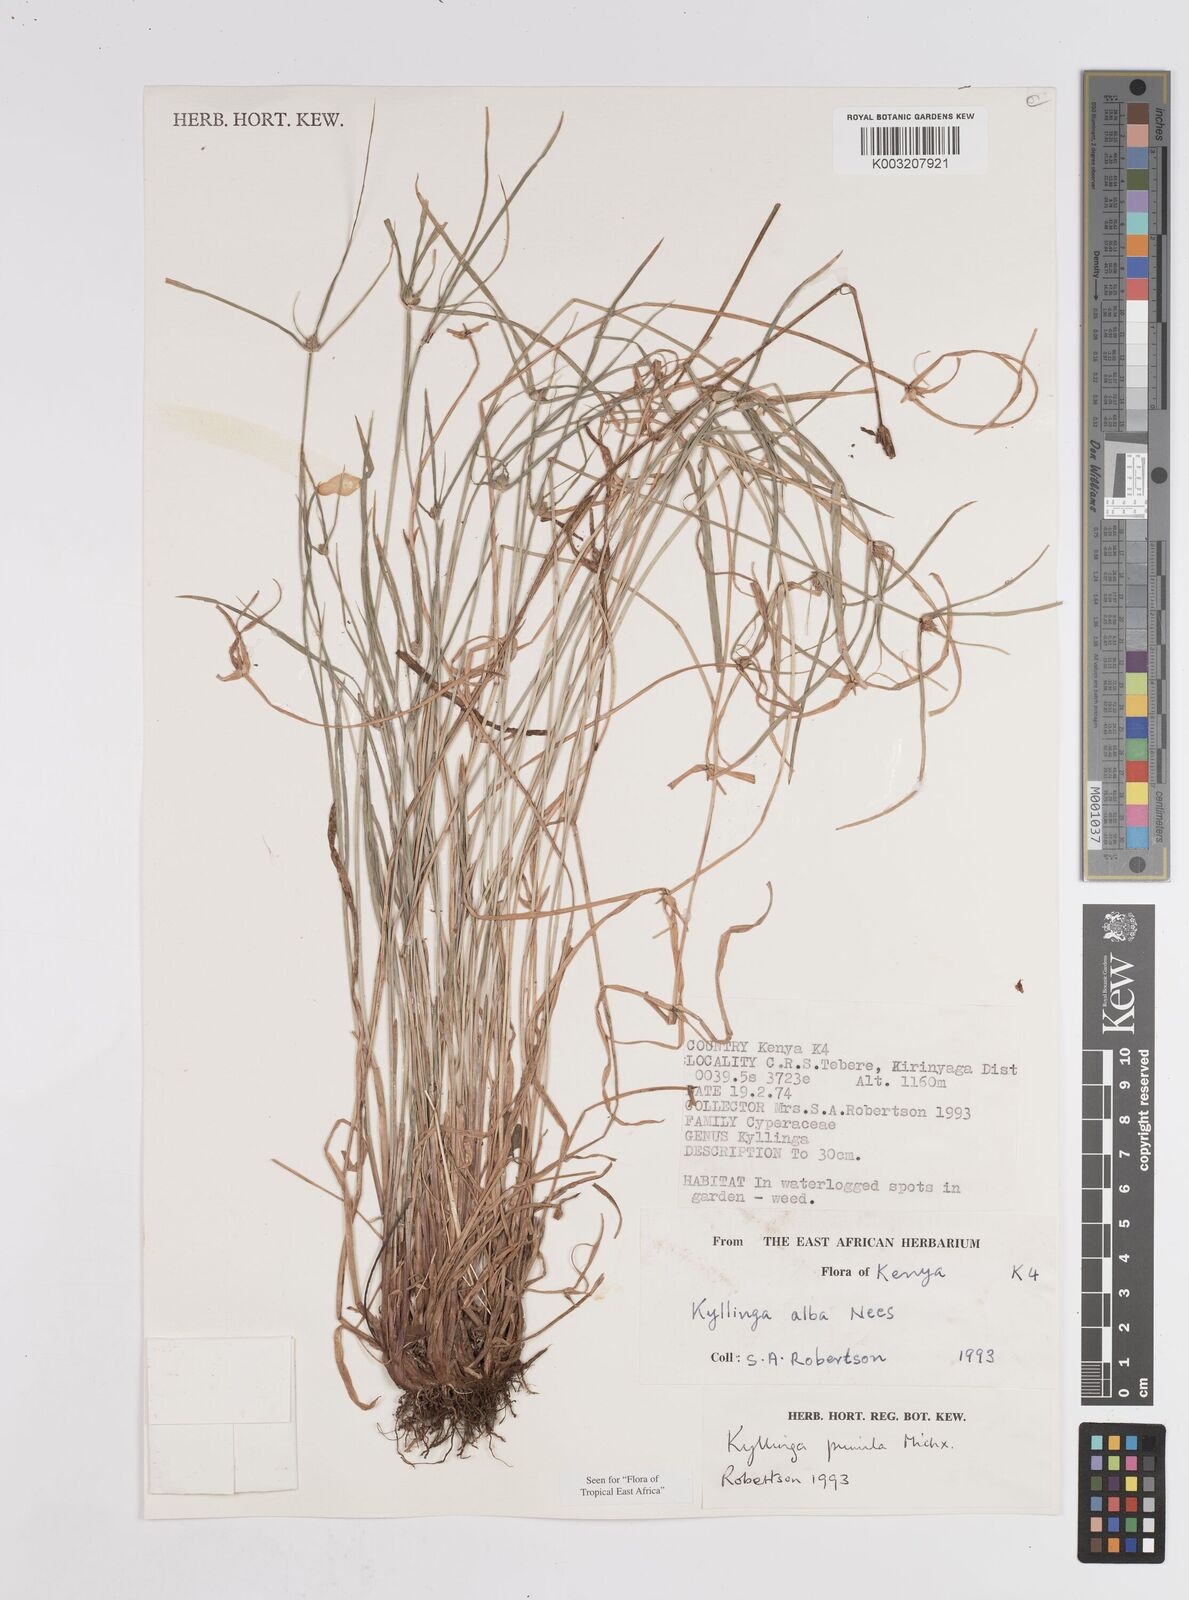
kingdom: Plantae
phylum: Tracheophyta
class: Liliopsida
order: Poales
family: Cyperaceae
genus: Cyperus
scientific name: Cyperus
